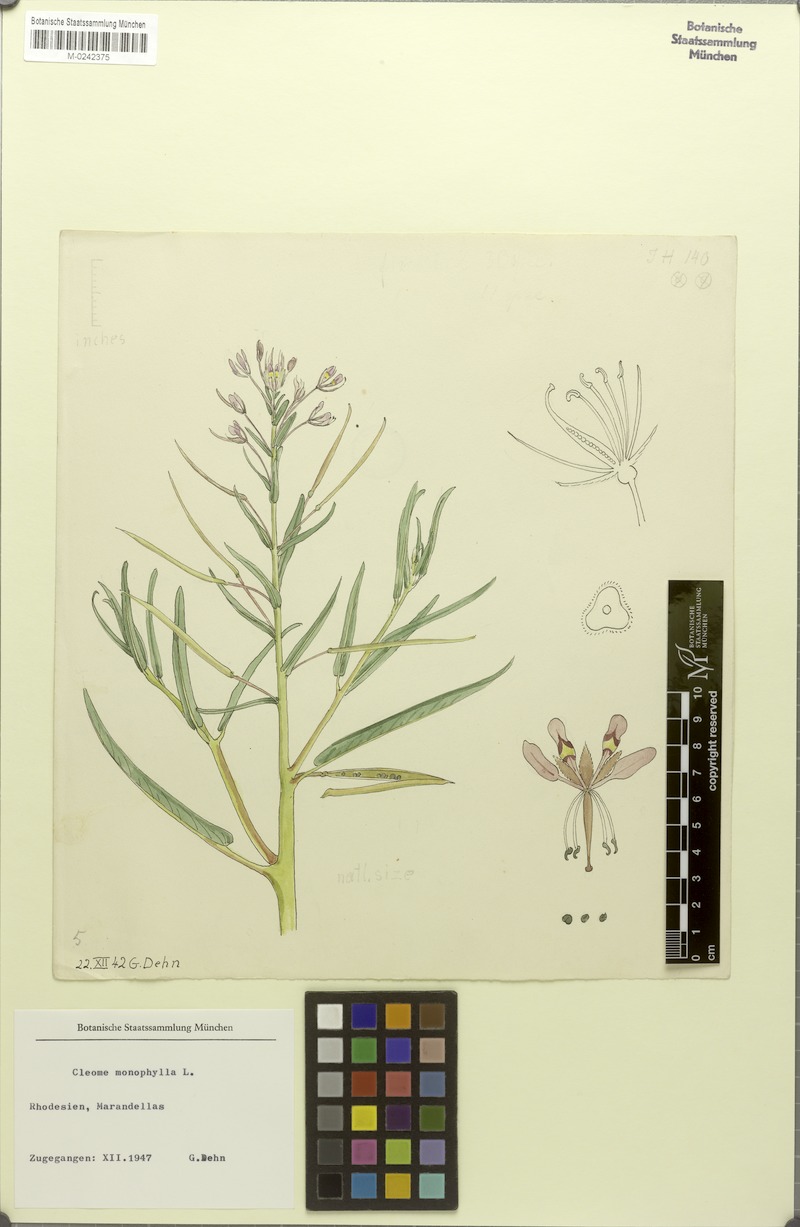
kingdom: Plantae
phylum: Tracheophyta
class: Magnoliopsida
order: Brassicales
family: Cleomaceae
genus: Sieruela
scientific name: Sieruela monophylla
